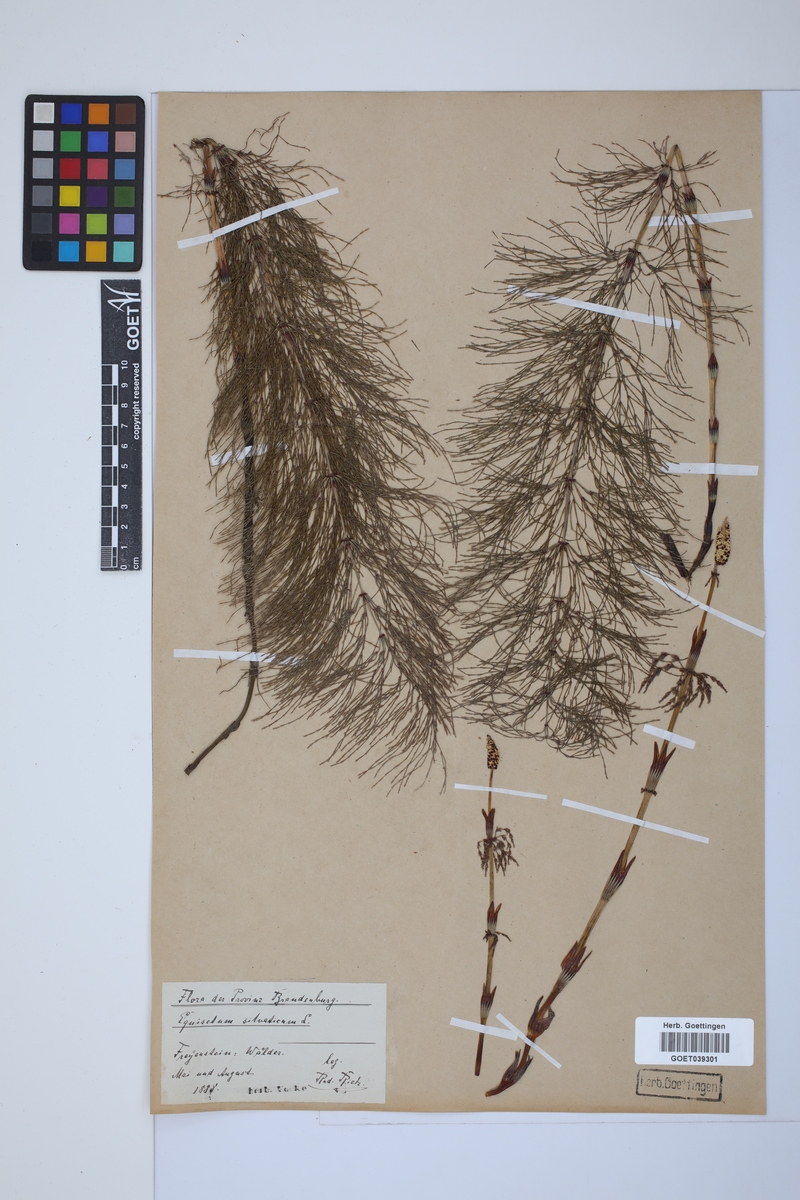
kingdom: Plantae
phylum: Tracheophyta
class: Polypodiopsida
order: Equisetales
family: Equisetaceae
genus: Equisetum
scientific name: Equisetum sylvaticum
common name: Wood horsetail
